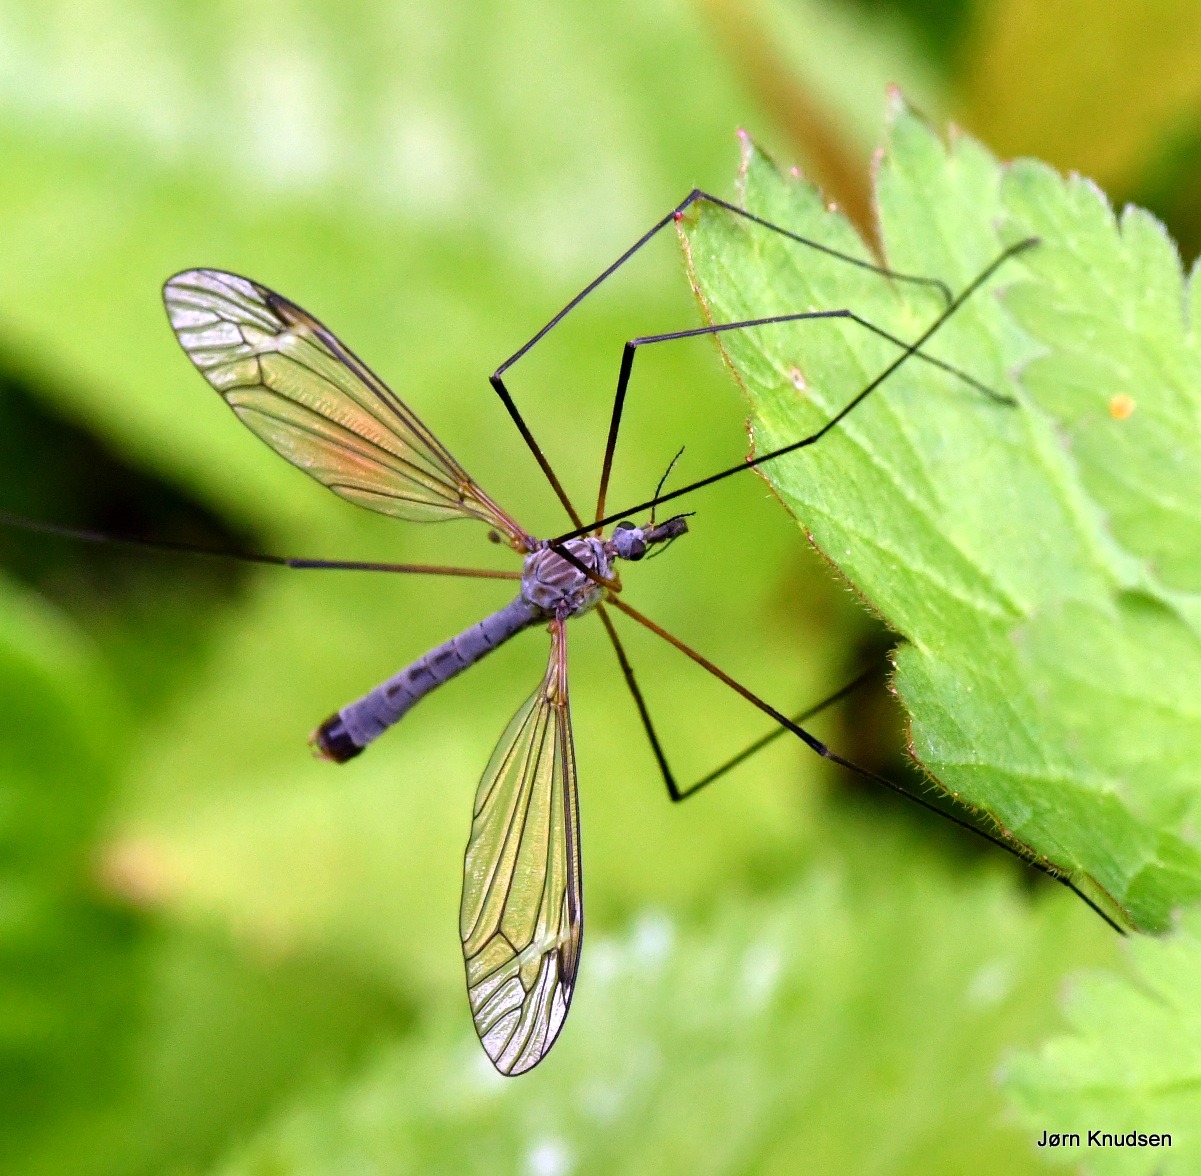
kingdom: Animalia
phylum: Arthropoda
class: Insecta
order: Diptera
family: Tipulidae
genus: Tipula
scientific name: Tipula luna
